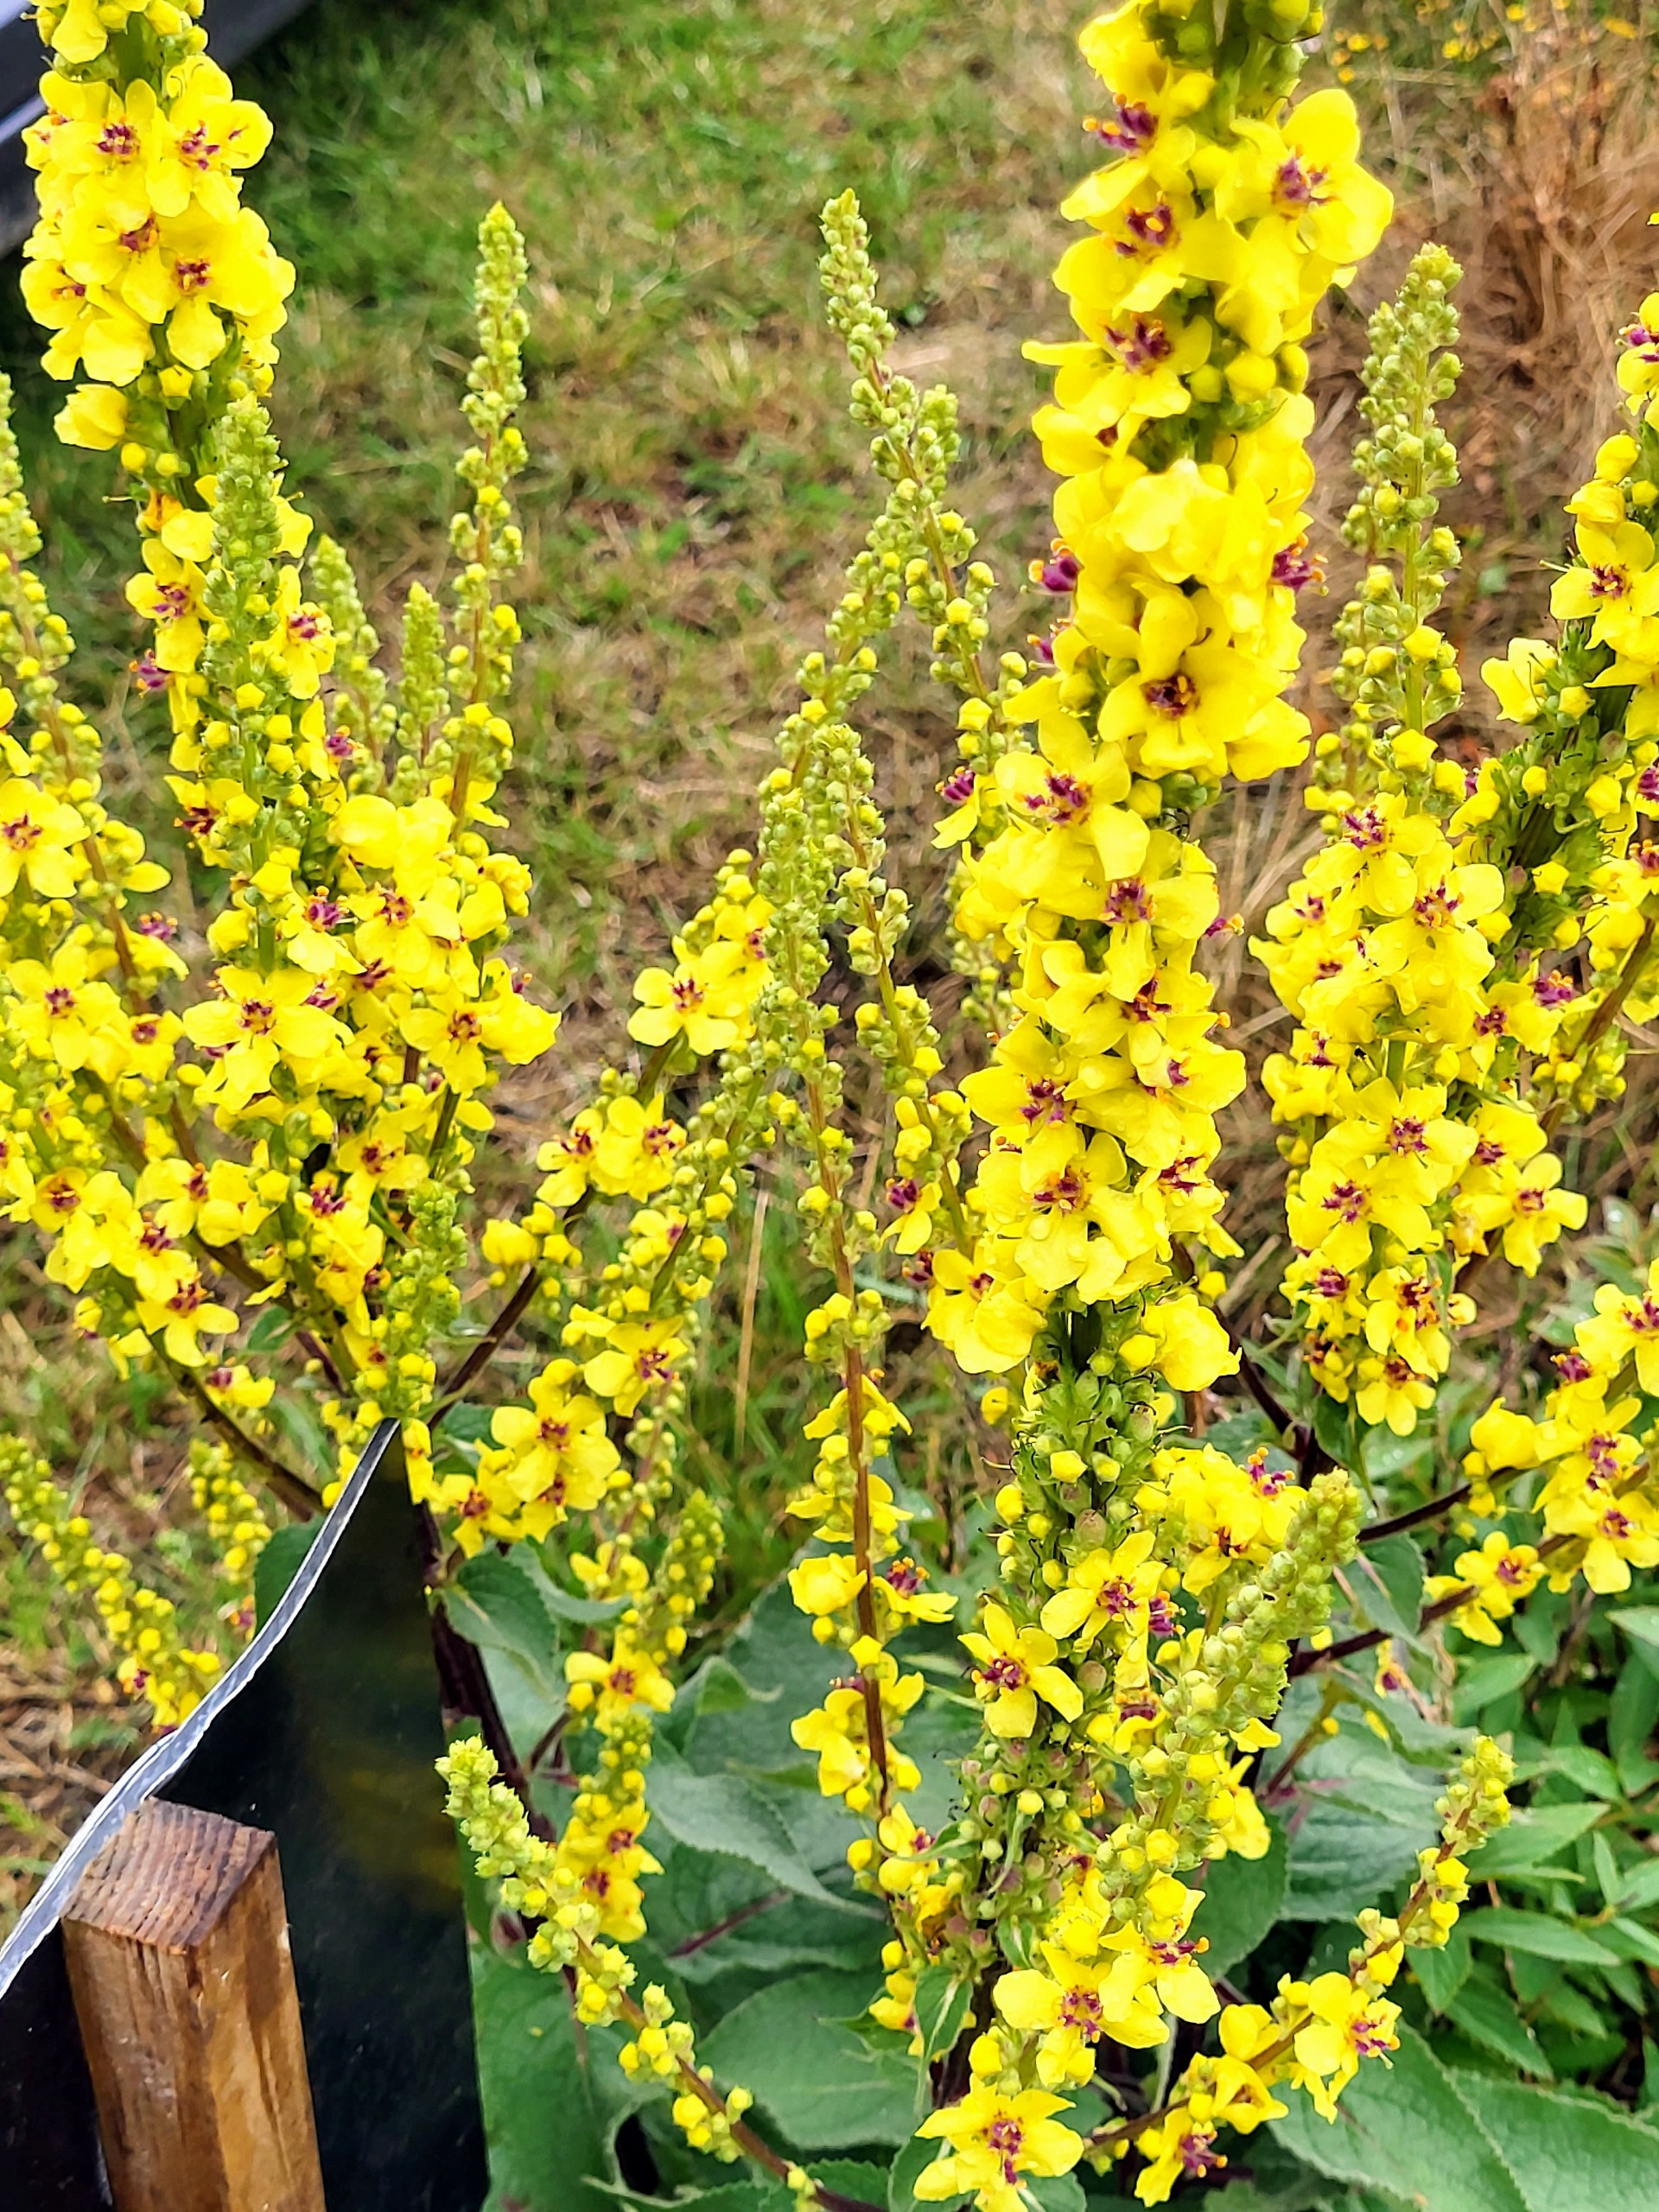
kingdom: Plantae
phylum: Tracheophyta
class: Magnoliopsida
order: Lamiales
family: Scrophulariaceae
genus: Verbascum
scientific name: Verbascum nigrum
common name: Mørk kongelys
